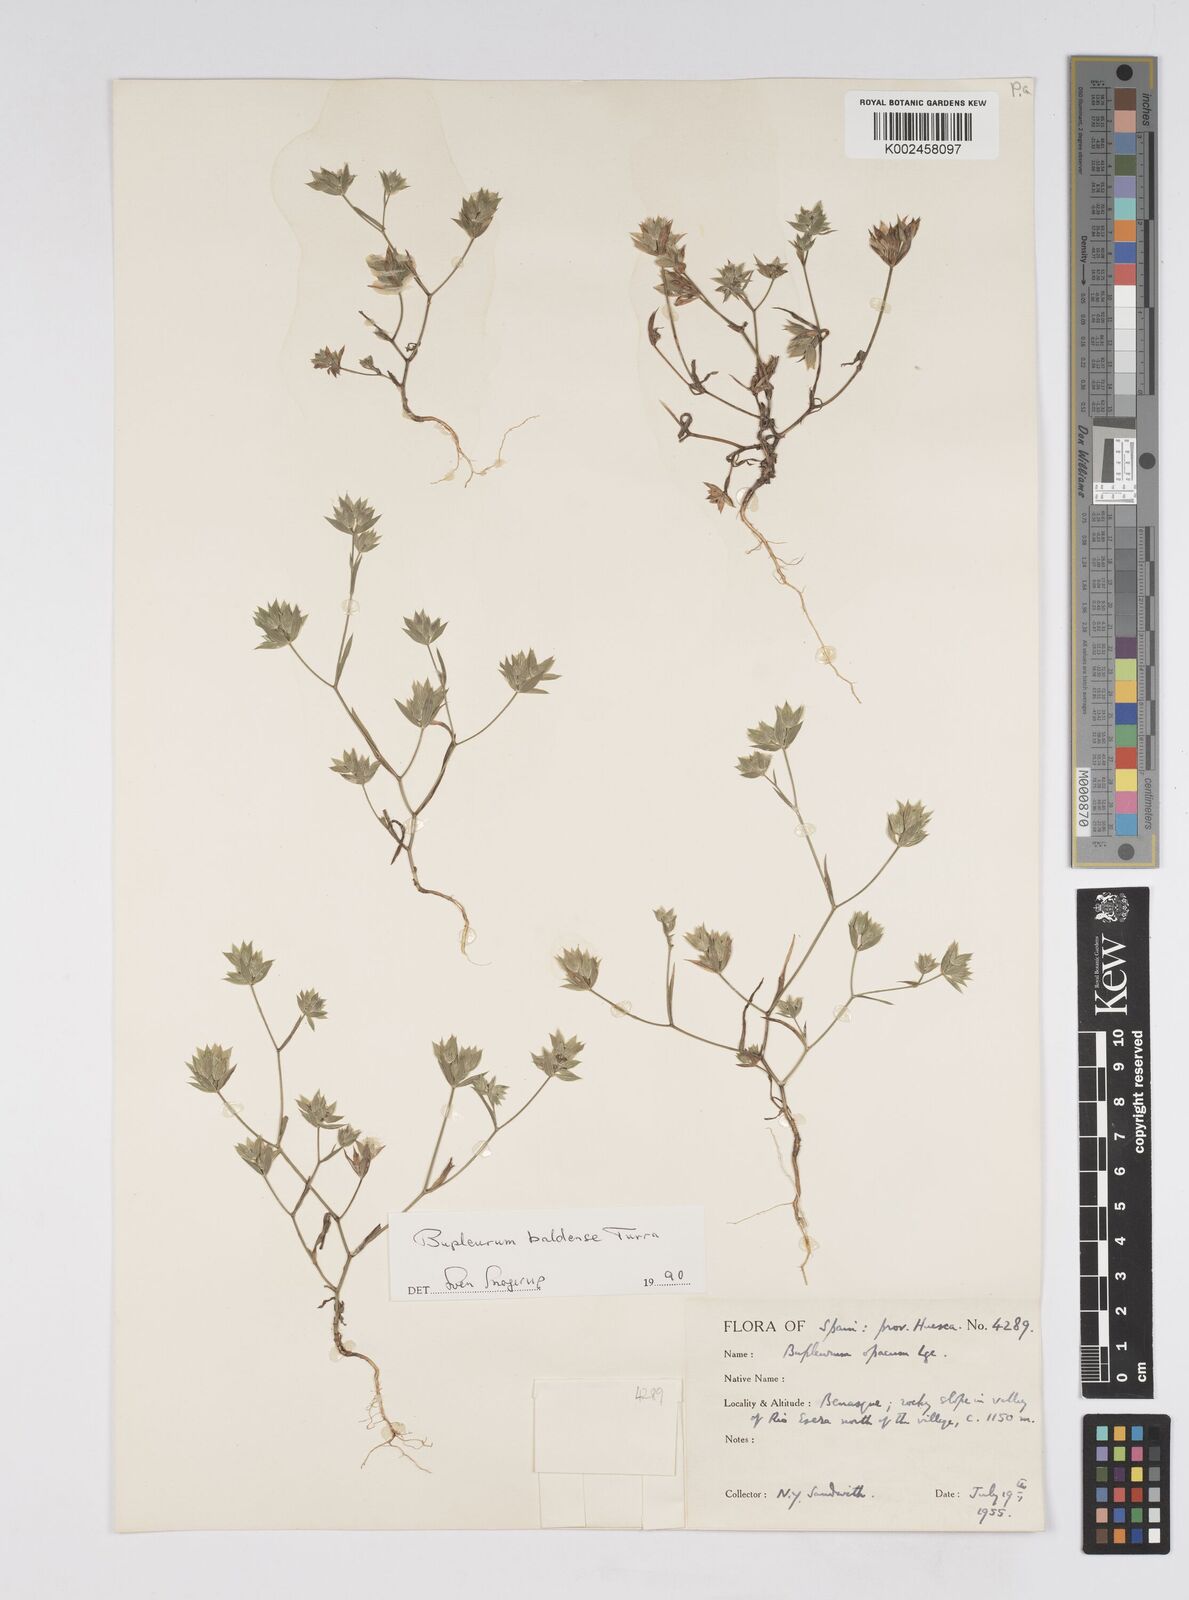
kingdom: Plantae
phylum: Tracheophyta
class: Magnoliopsida
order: Apiales
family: Apiaceae
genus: Bupleurum
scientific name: Bupleurum baldense
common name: Small hare's-ear
